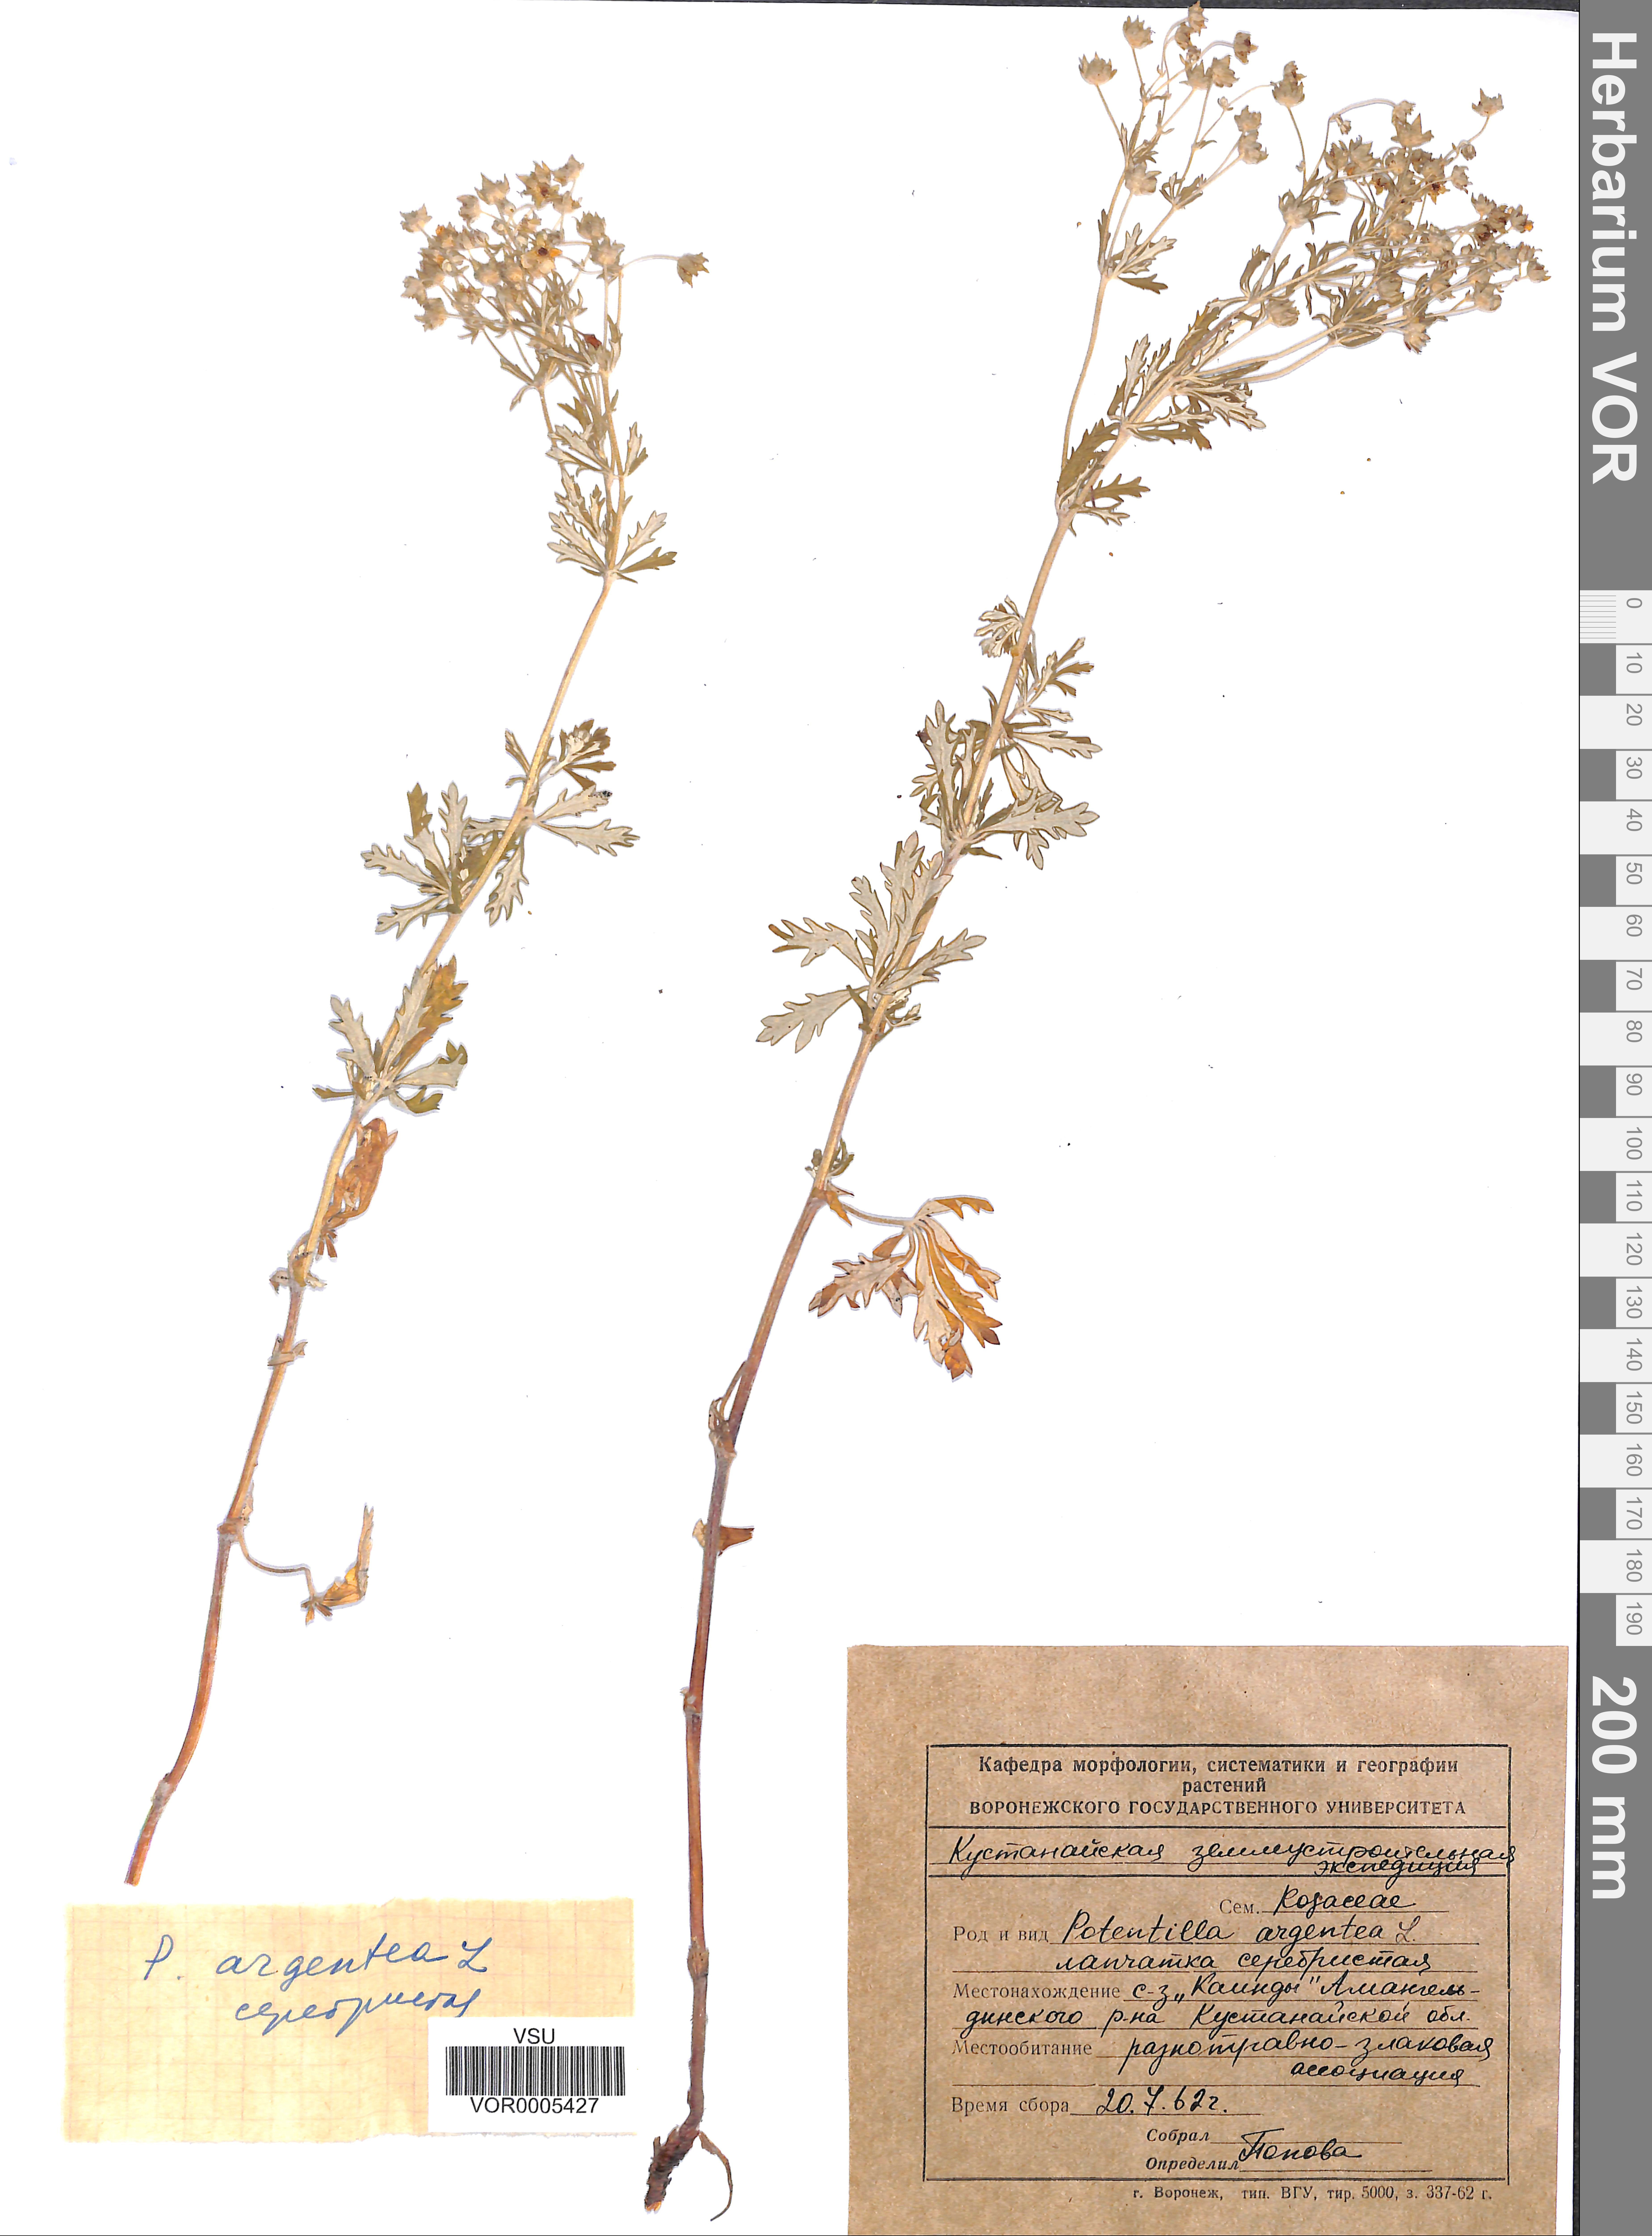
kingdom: Plantae
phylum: Tracheophyta
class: Magnoliopsida
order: Rosales
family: Rosaceae
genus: Potentilla
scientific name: Potentilla argentea
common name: Hoary cinquefoil
